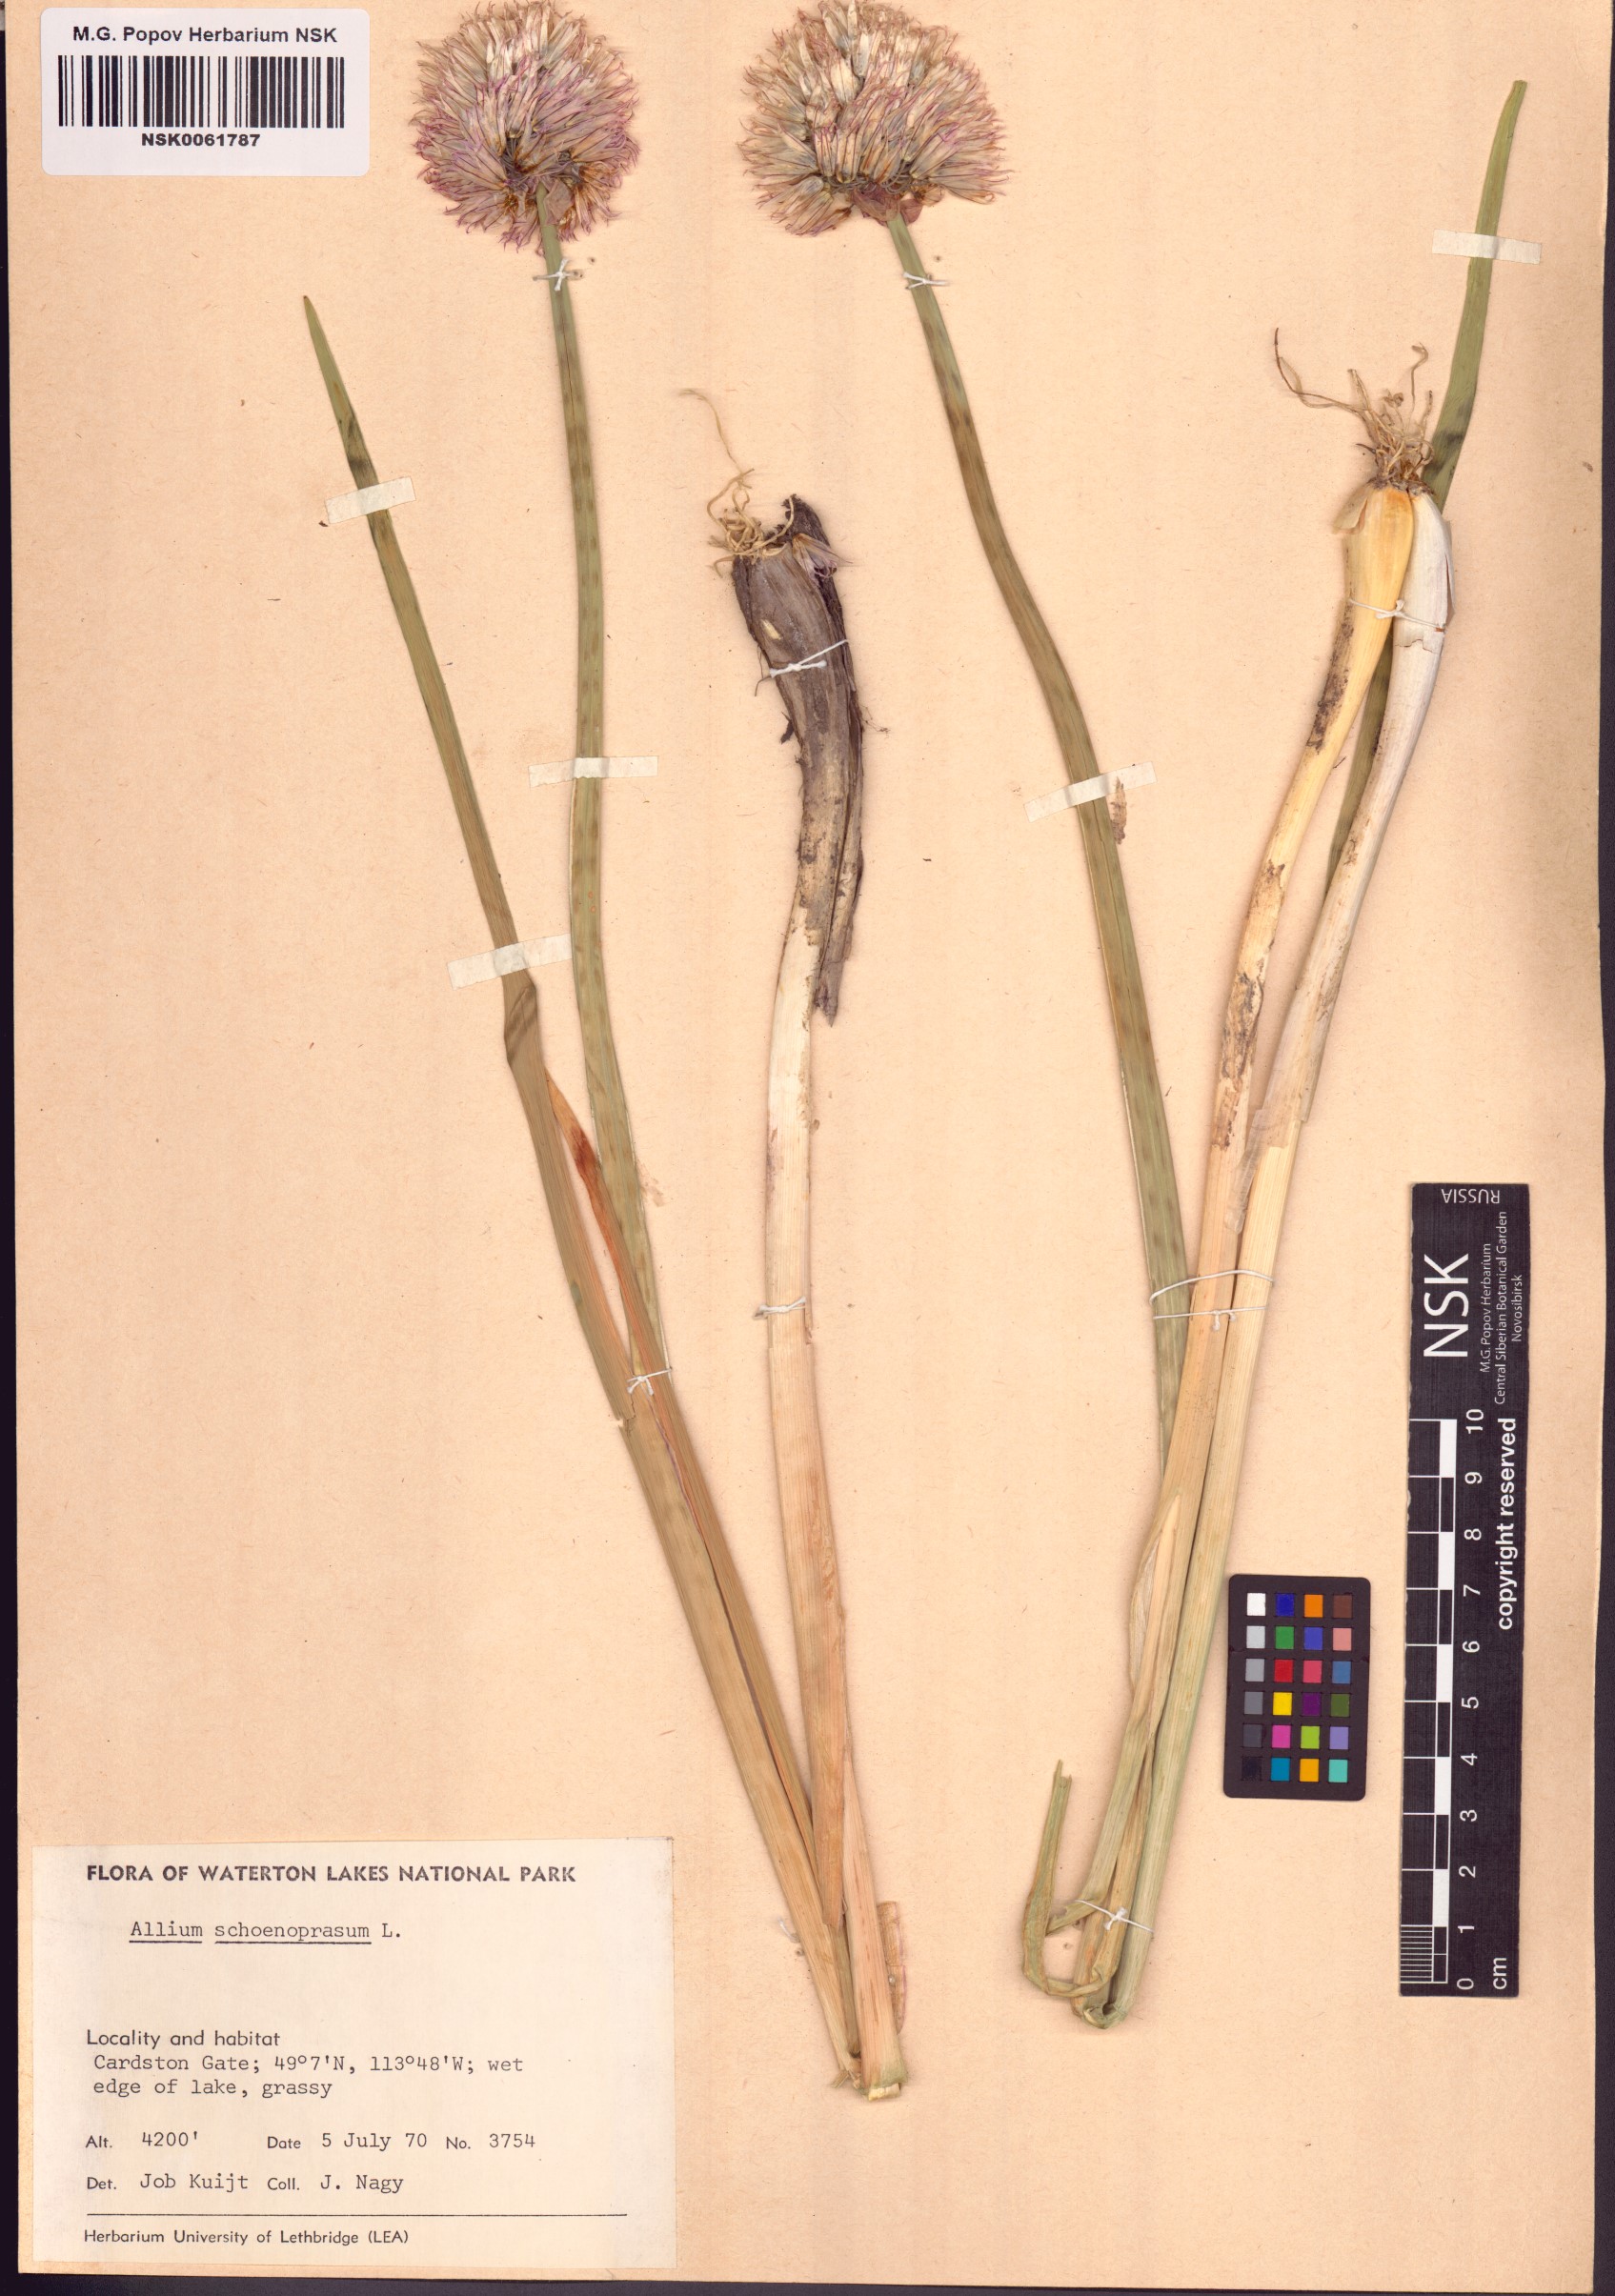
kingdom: Plantae
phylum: Tracheophyta
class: Liliopsida
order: Asparagales
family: Amaryllidaceae
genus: Allium
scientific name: Allium schoenoprasum
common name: Chives
